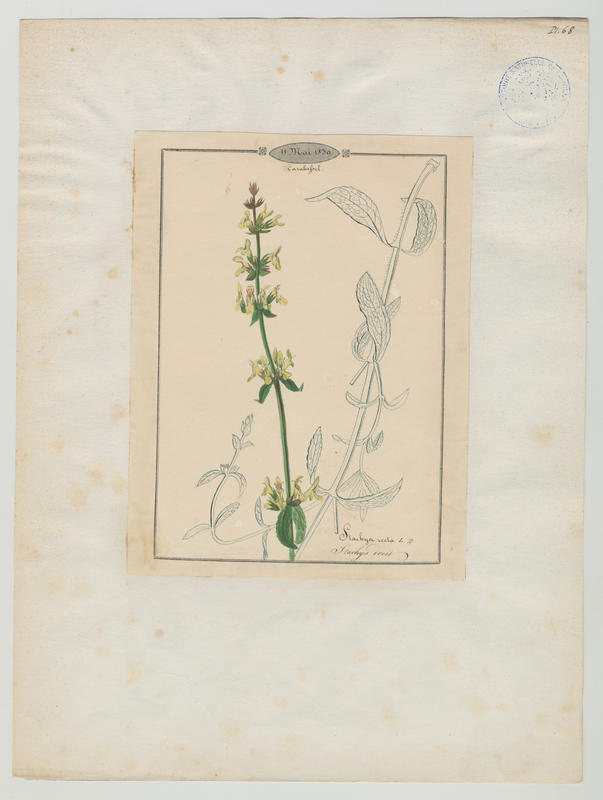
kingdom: Plantae
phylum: Tracheophyta
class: Magnoliopsida
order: Lamiales
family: Lamiaceae
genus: Stachys
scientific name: Stachys recta
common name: Perennial yellow-woundwort
